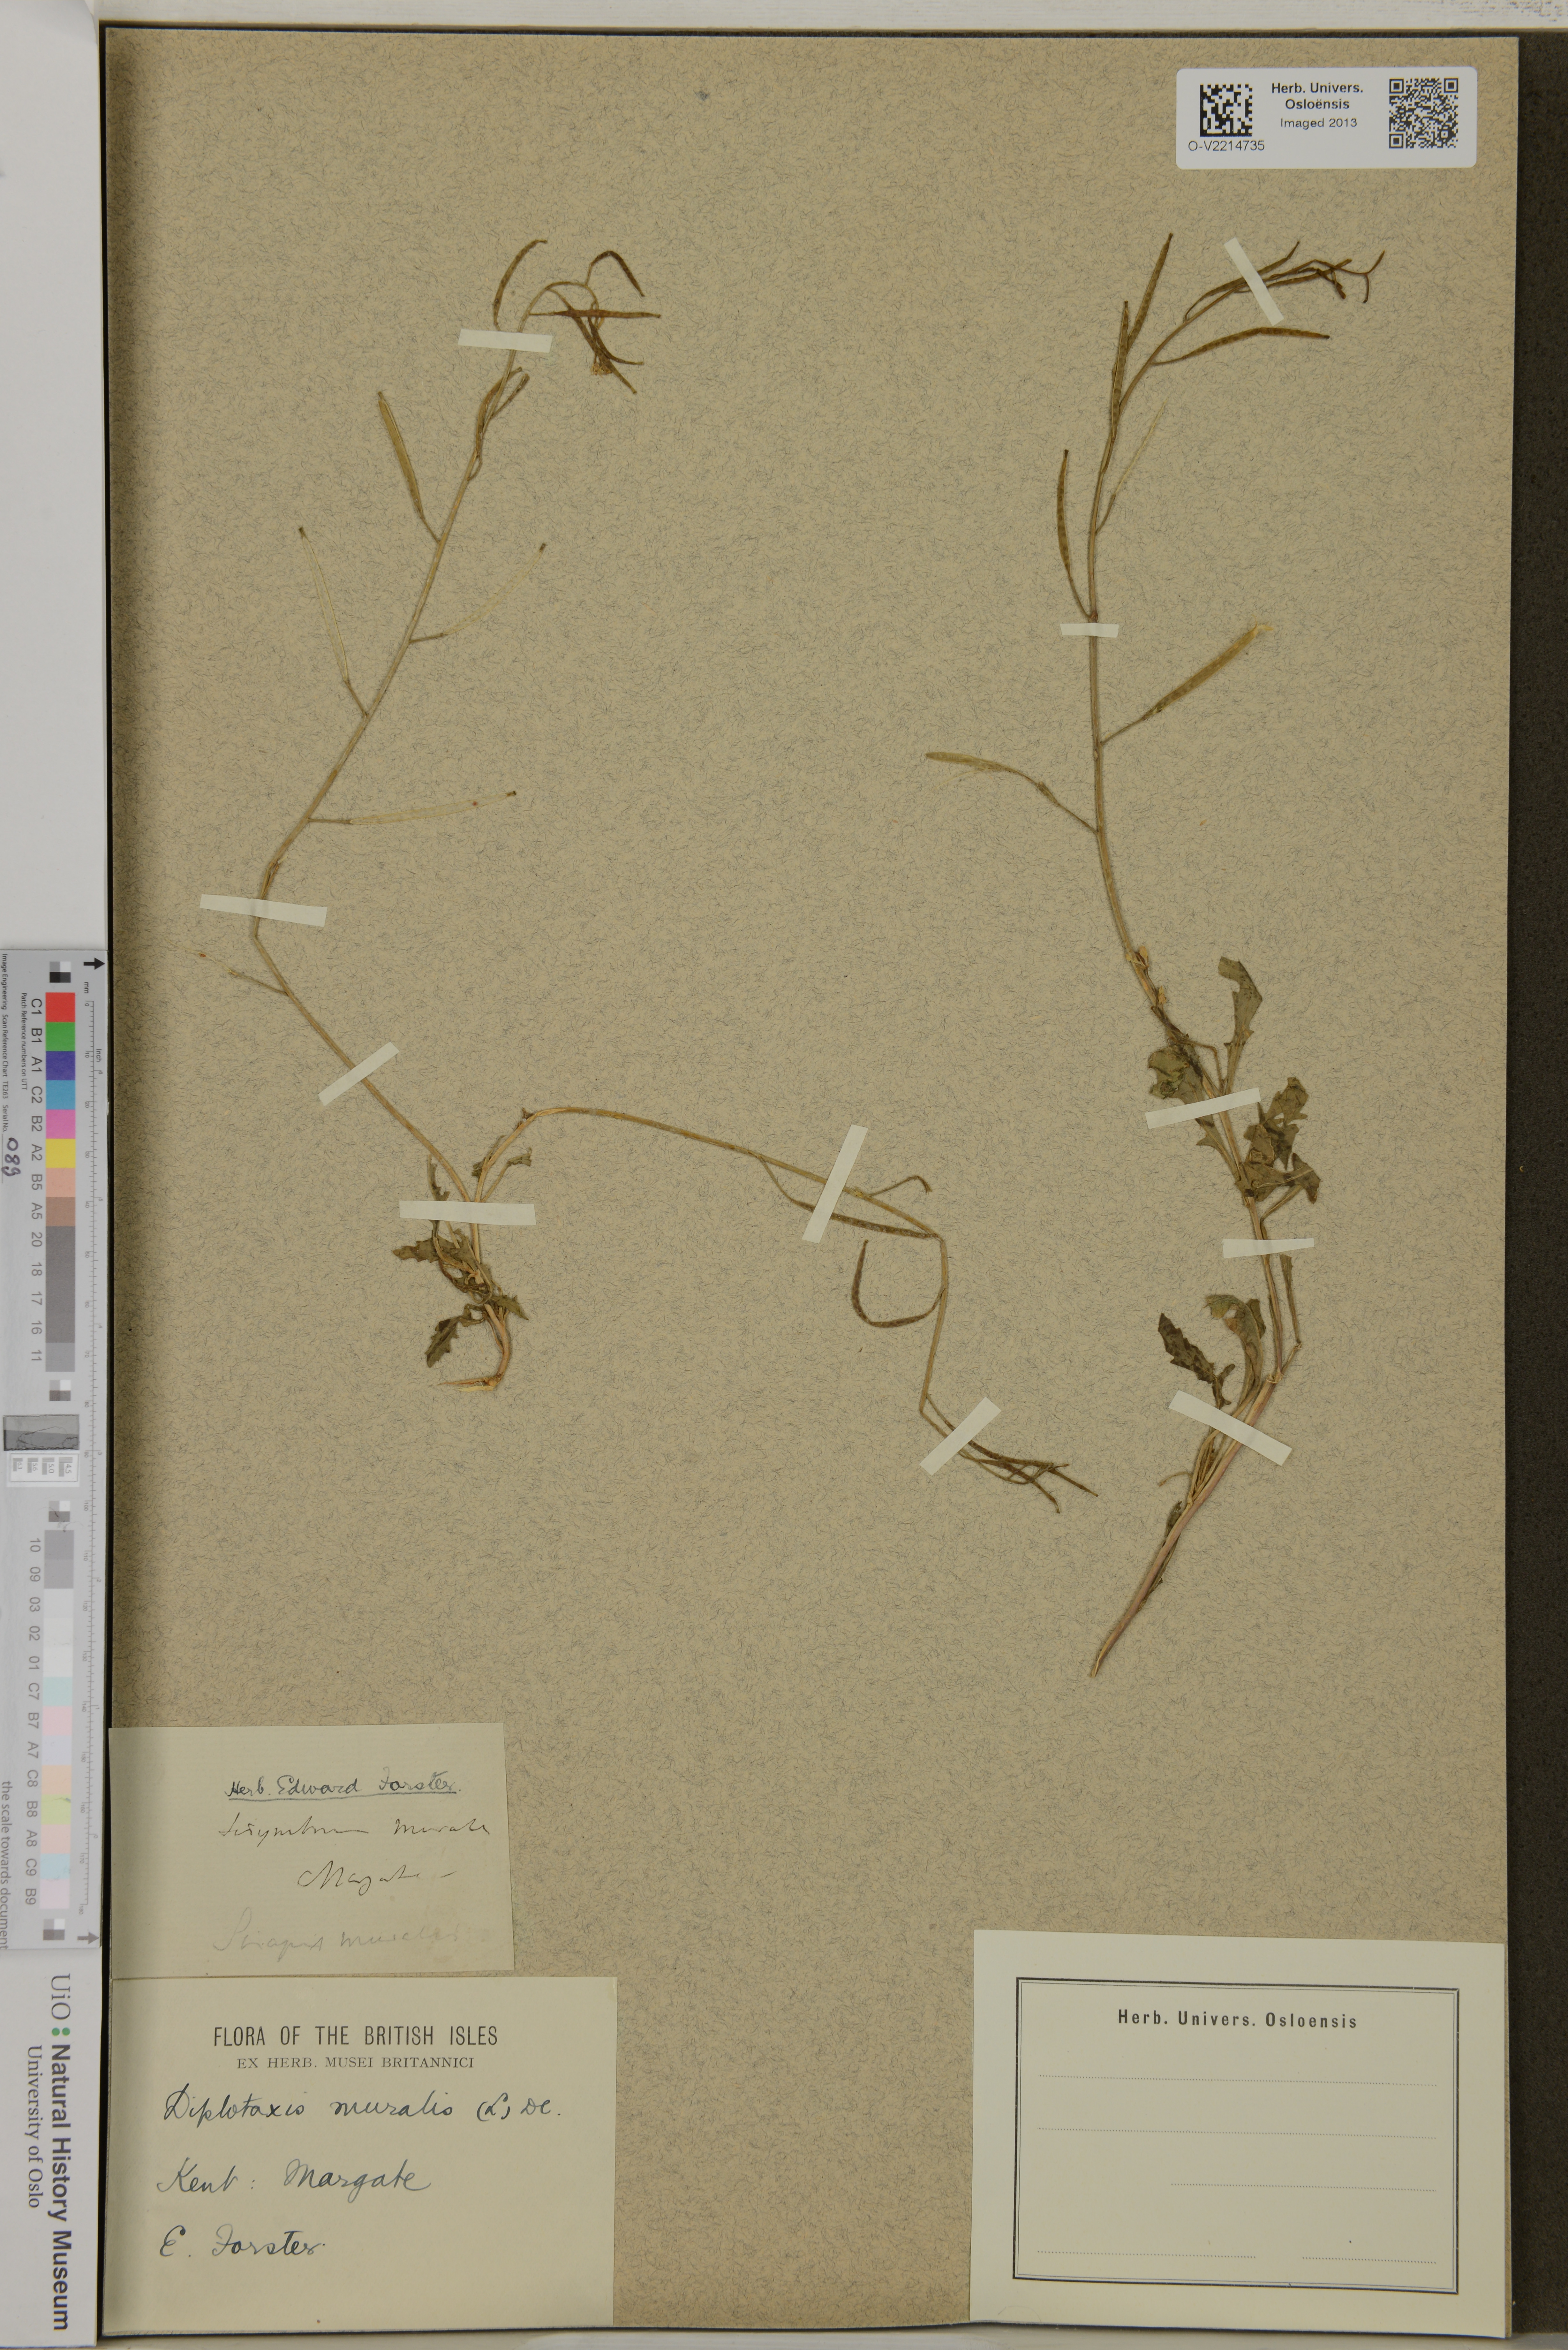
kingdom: Plantae
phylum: Tracheophyta
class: Magnoliopsida
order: Brassicales
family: Brassicaceae
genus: Diplotaxis
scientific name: Diplotaxis muralis
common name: Annual wall-rocket
